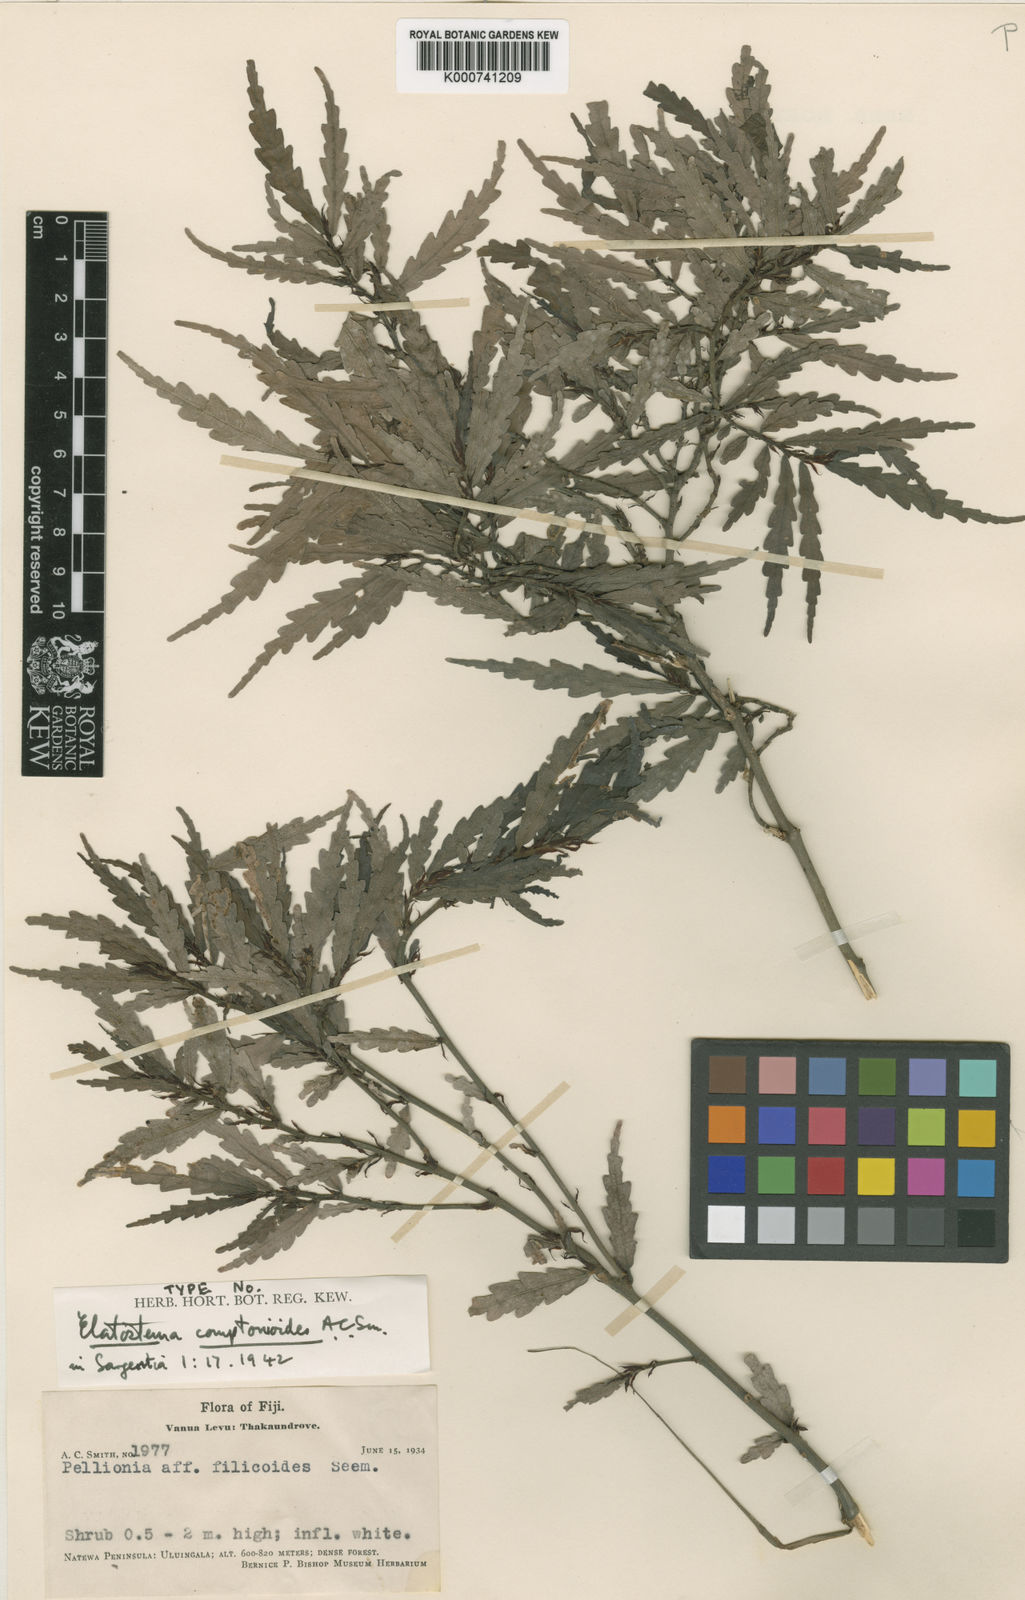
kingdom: Plantae
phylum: Tracheophyta
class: Magnoliopsida
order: Rosales
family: Urticaceae
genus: Elatostema
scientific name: Elatostema comptonioides
